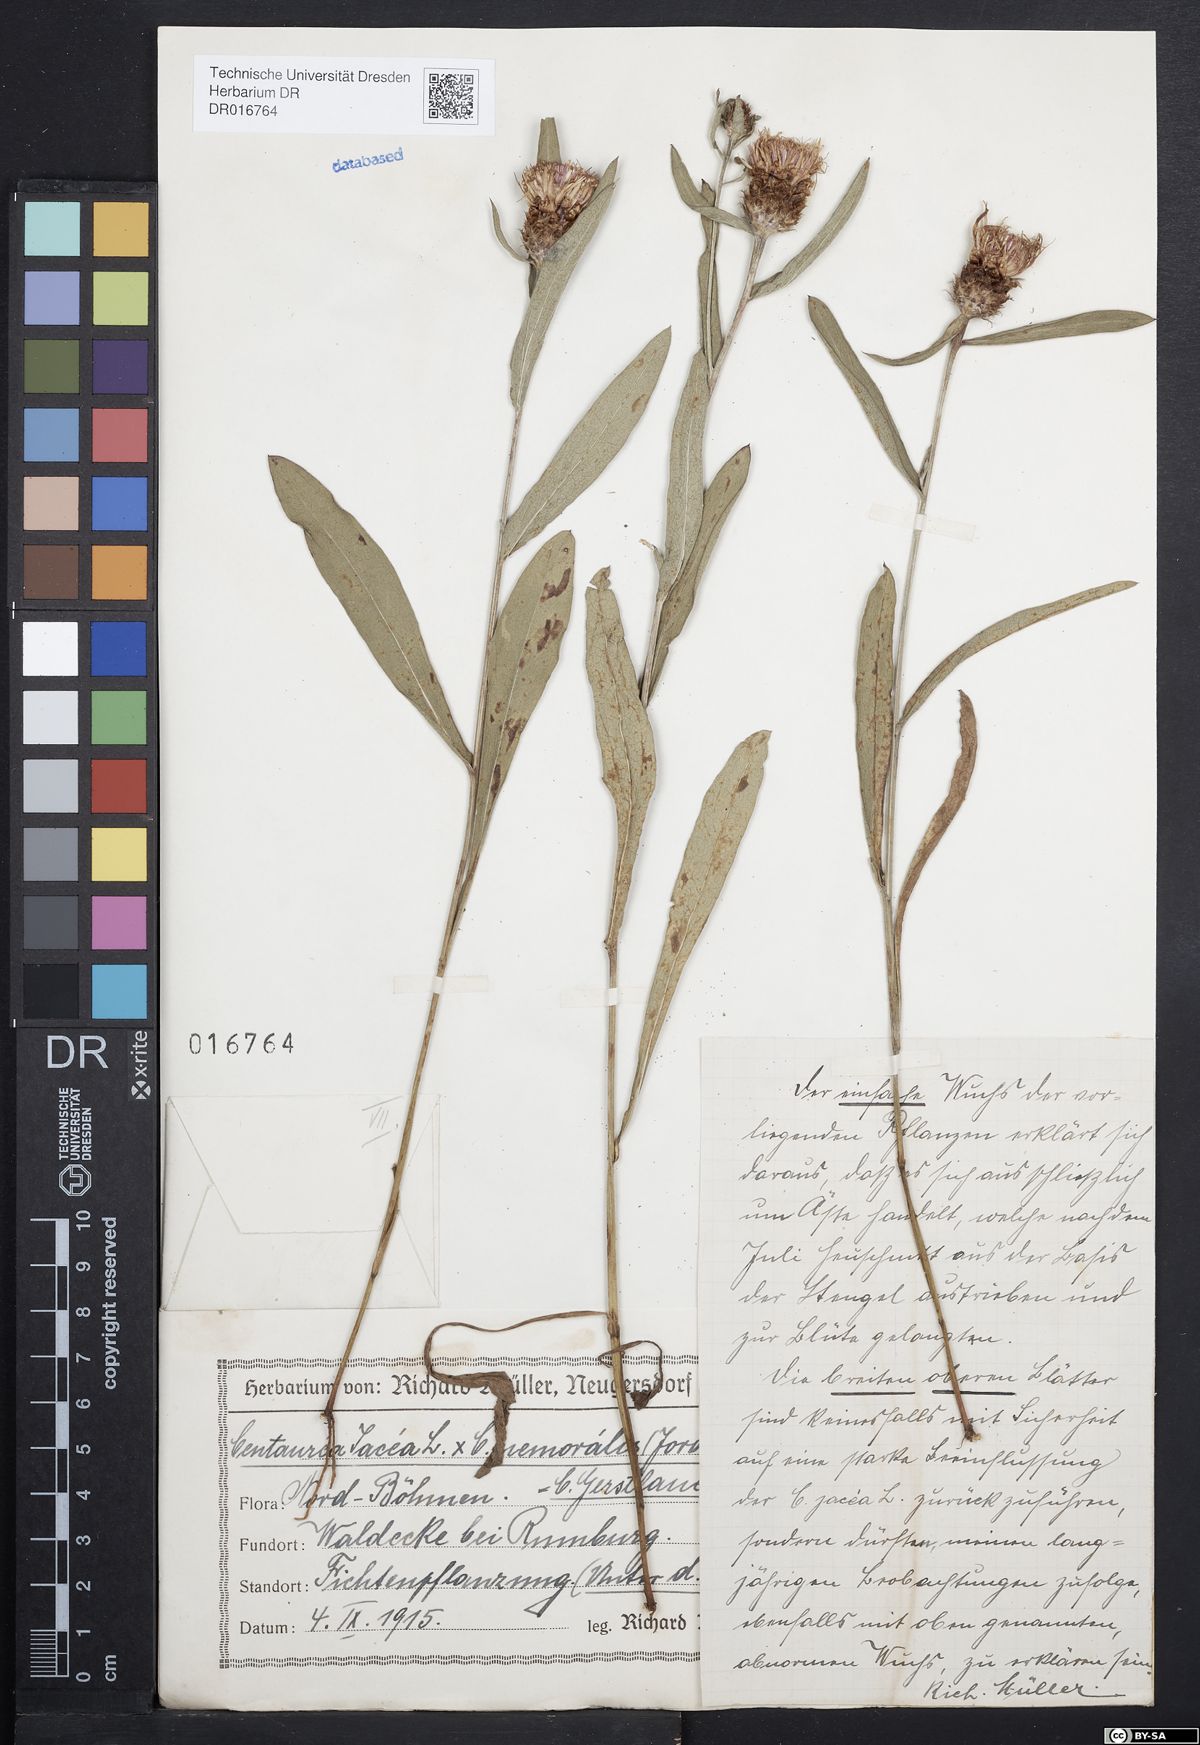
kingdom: Plantae
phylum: Tracheophyta
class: Magnoliopsida
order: Asterales
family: Asteraceae
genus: Centaurea
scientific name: Centaurea jacea
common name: Brown knapweed
